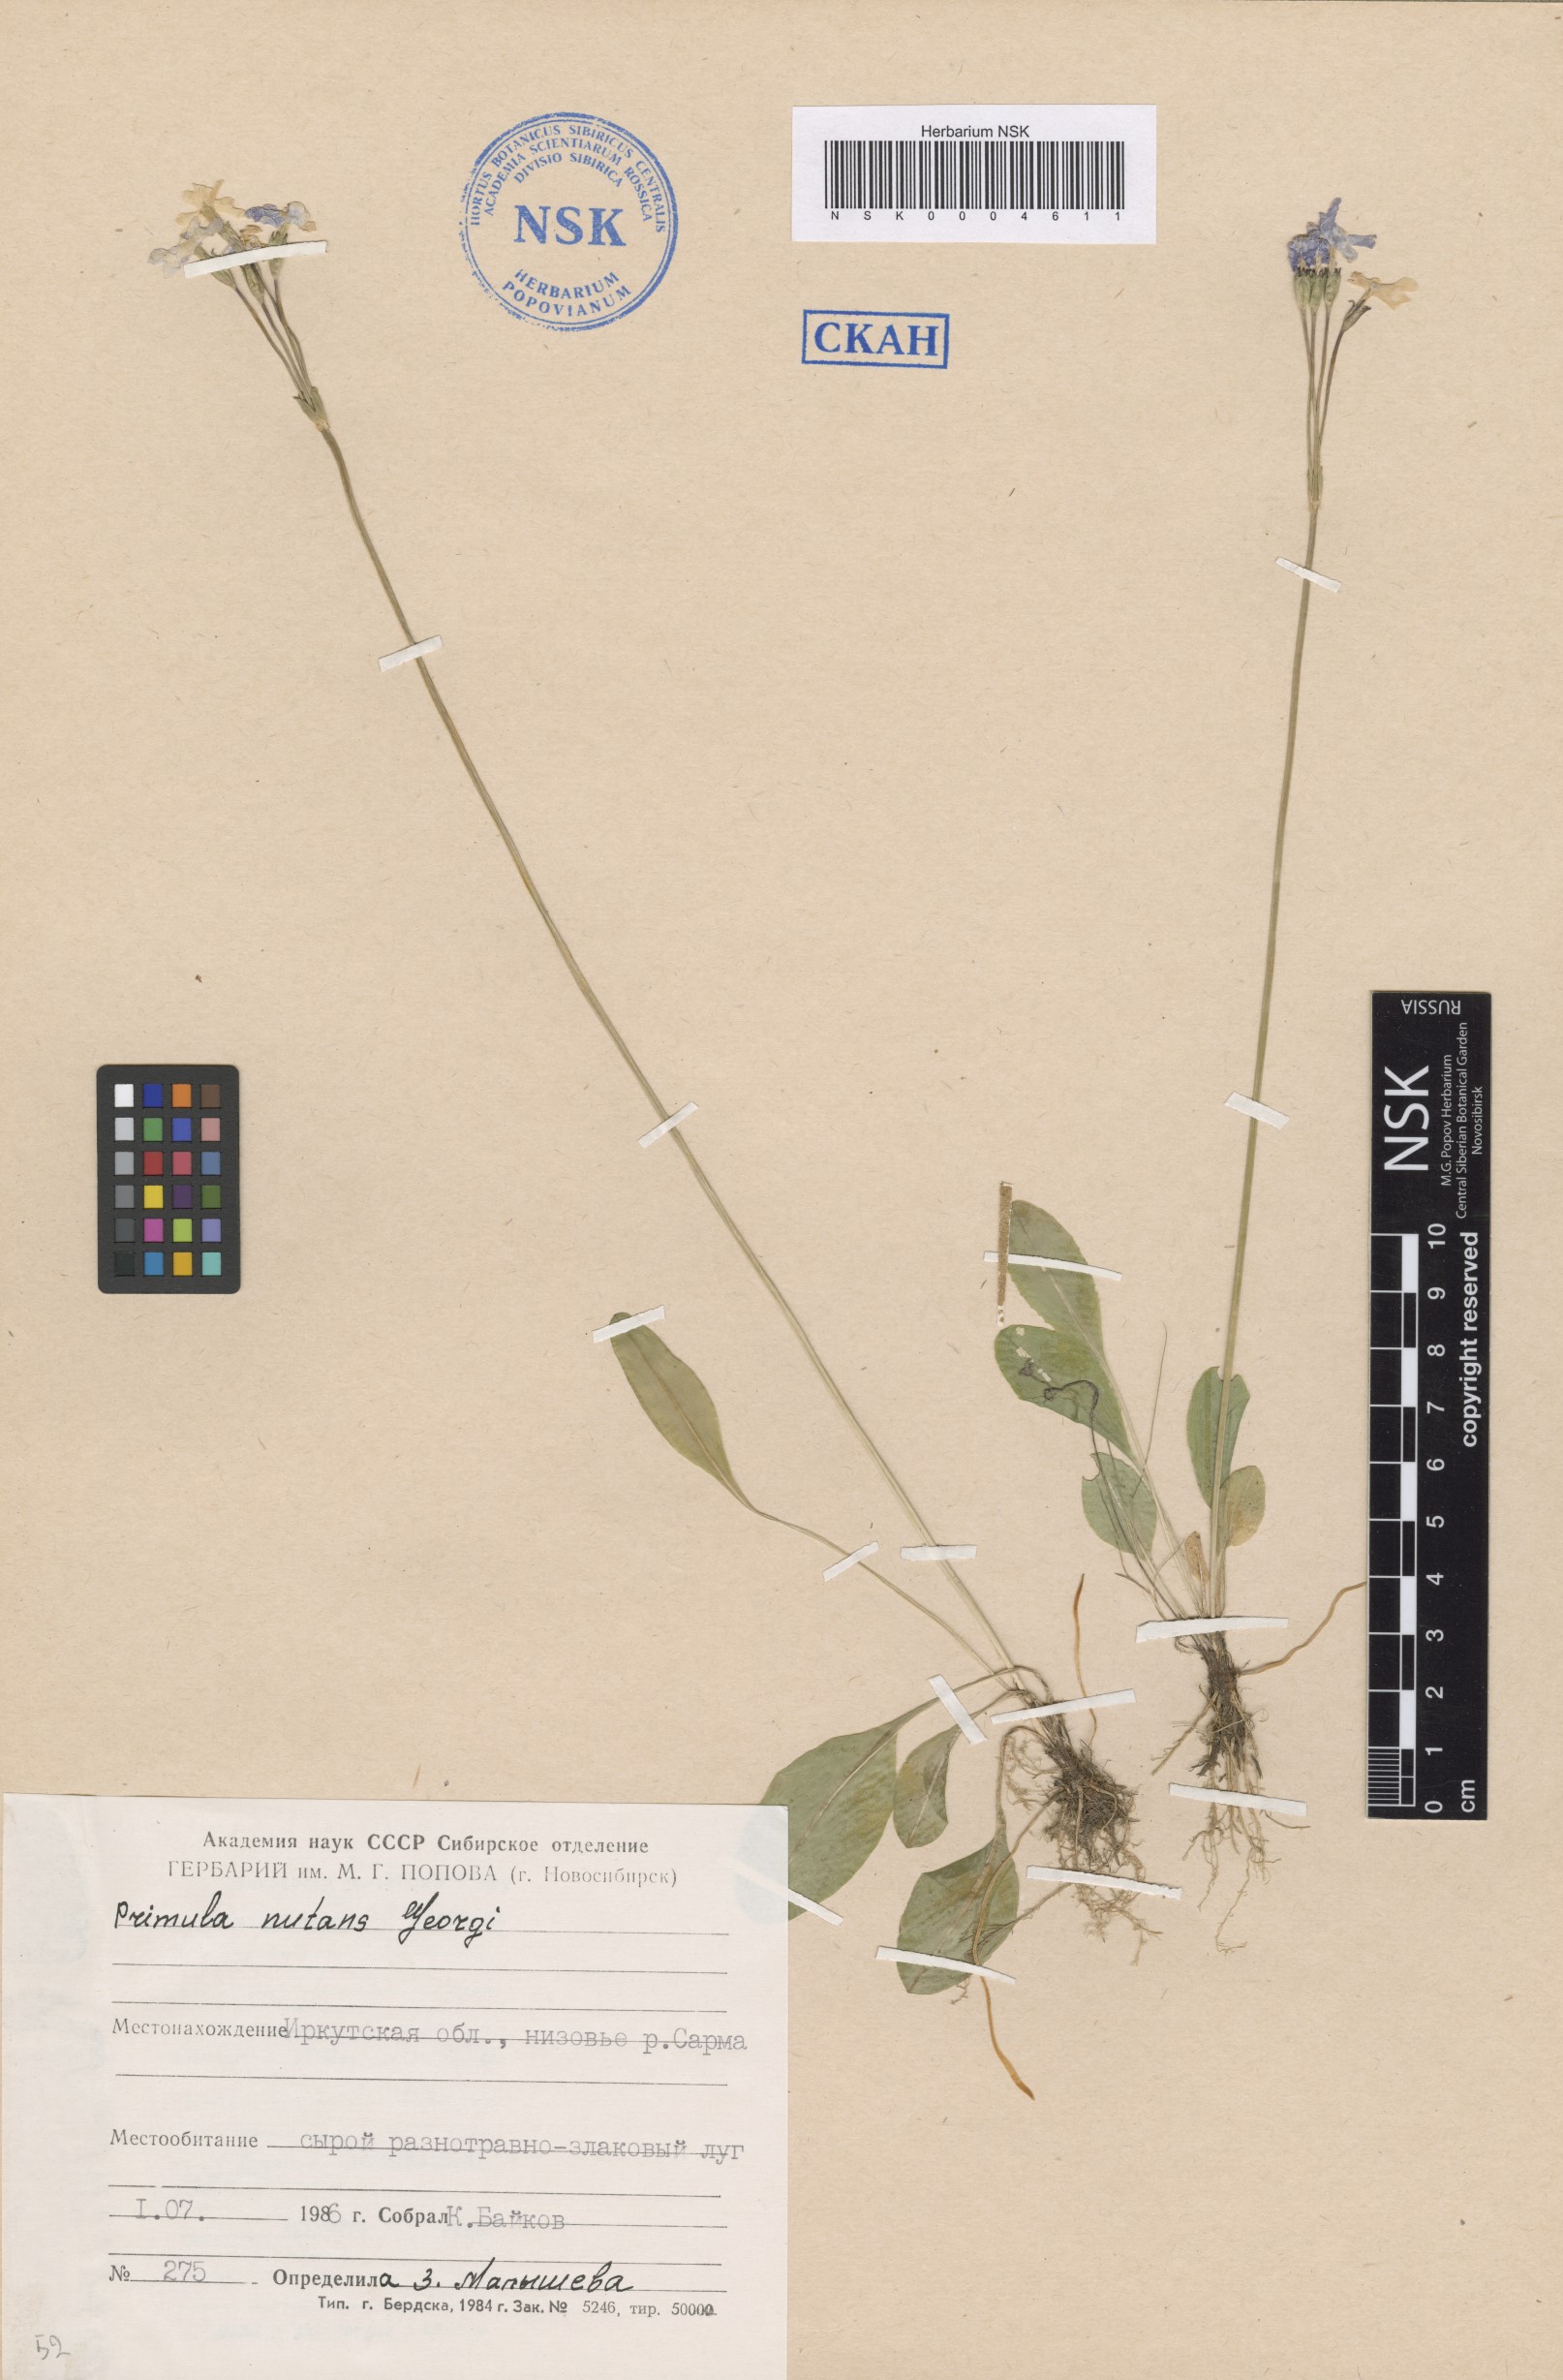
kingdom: Plantae
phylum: Tracheophyta
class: Magnoliopsida
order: Ericales
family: Primulaceae
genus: Primula
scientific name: Primula nutans
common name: Siberian primrose
